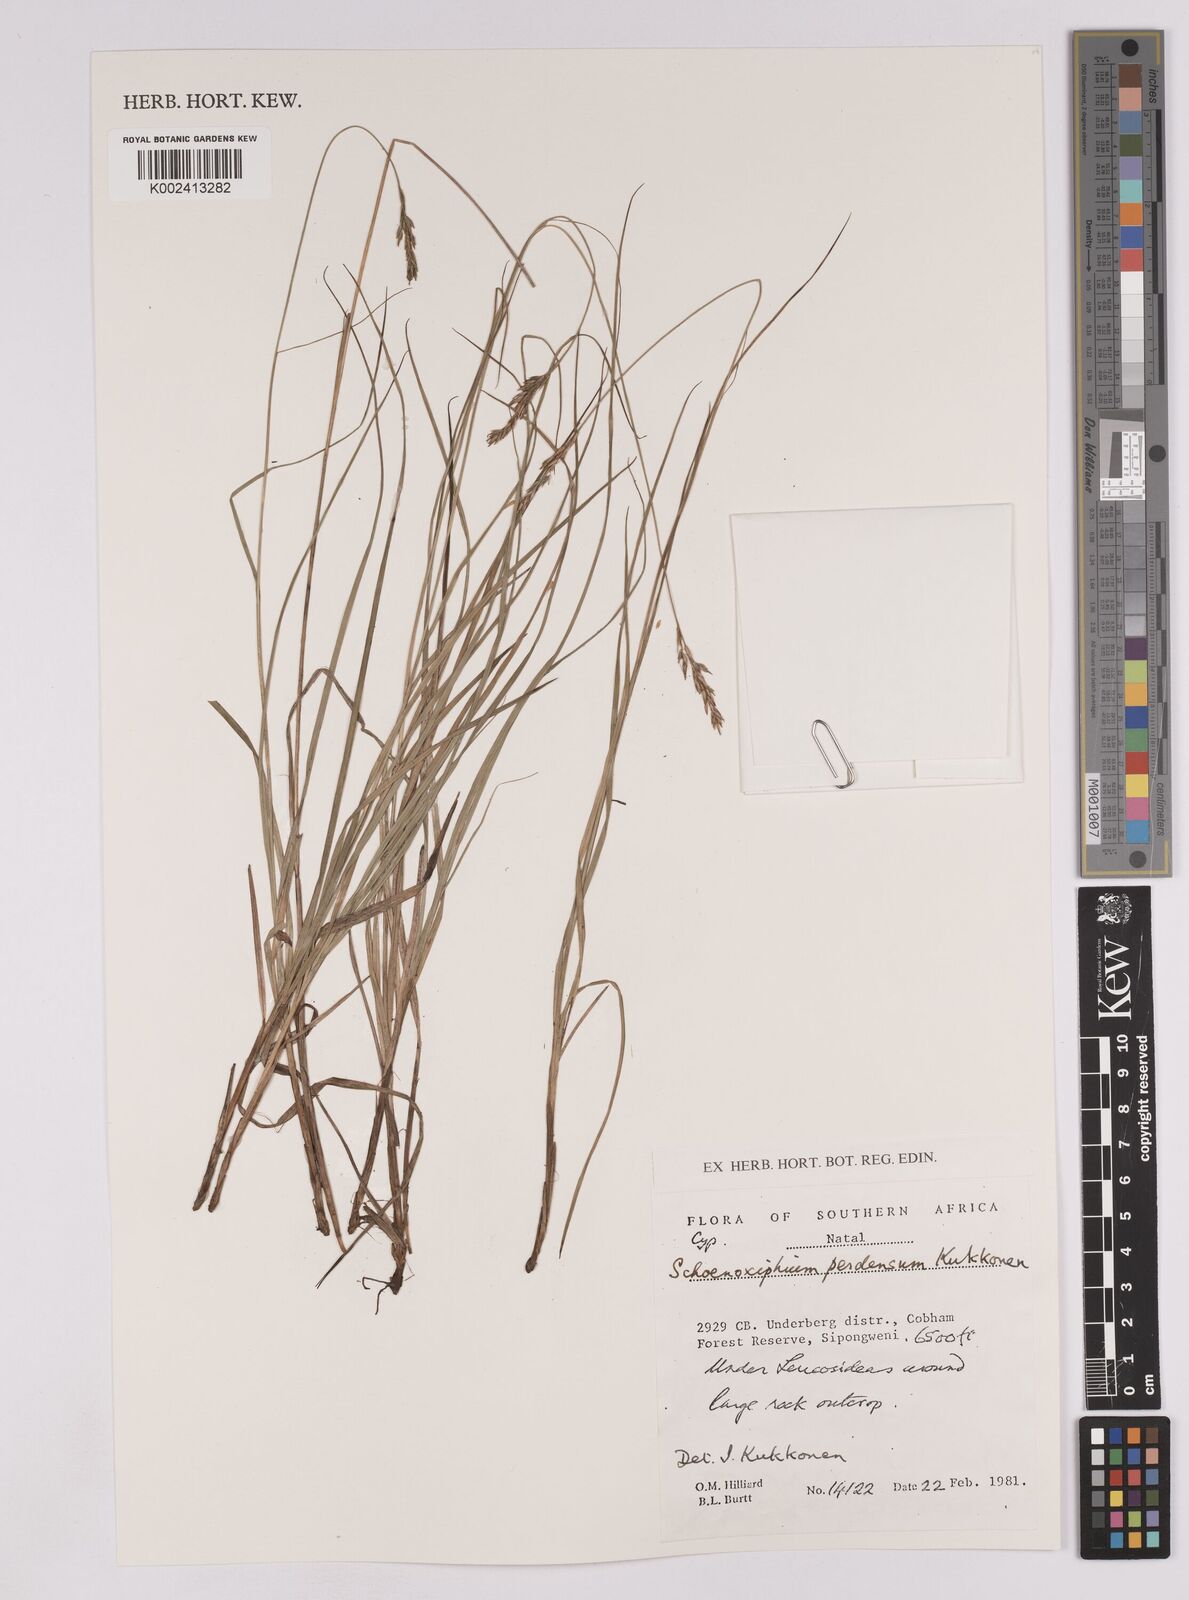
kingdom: Plantae
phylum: Tracheophyta
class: Liliopsida
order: Poales
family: Cyperaceae
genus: Carex
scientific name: Carex perdensa
